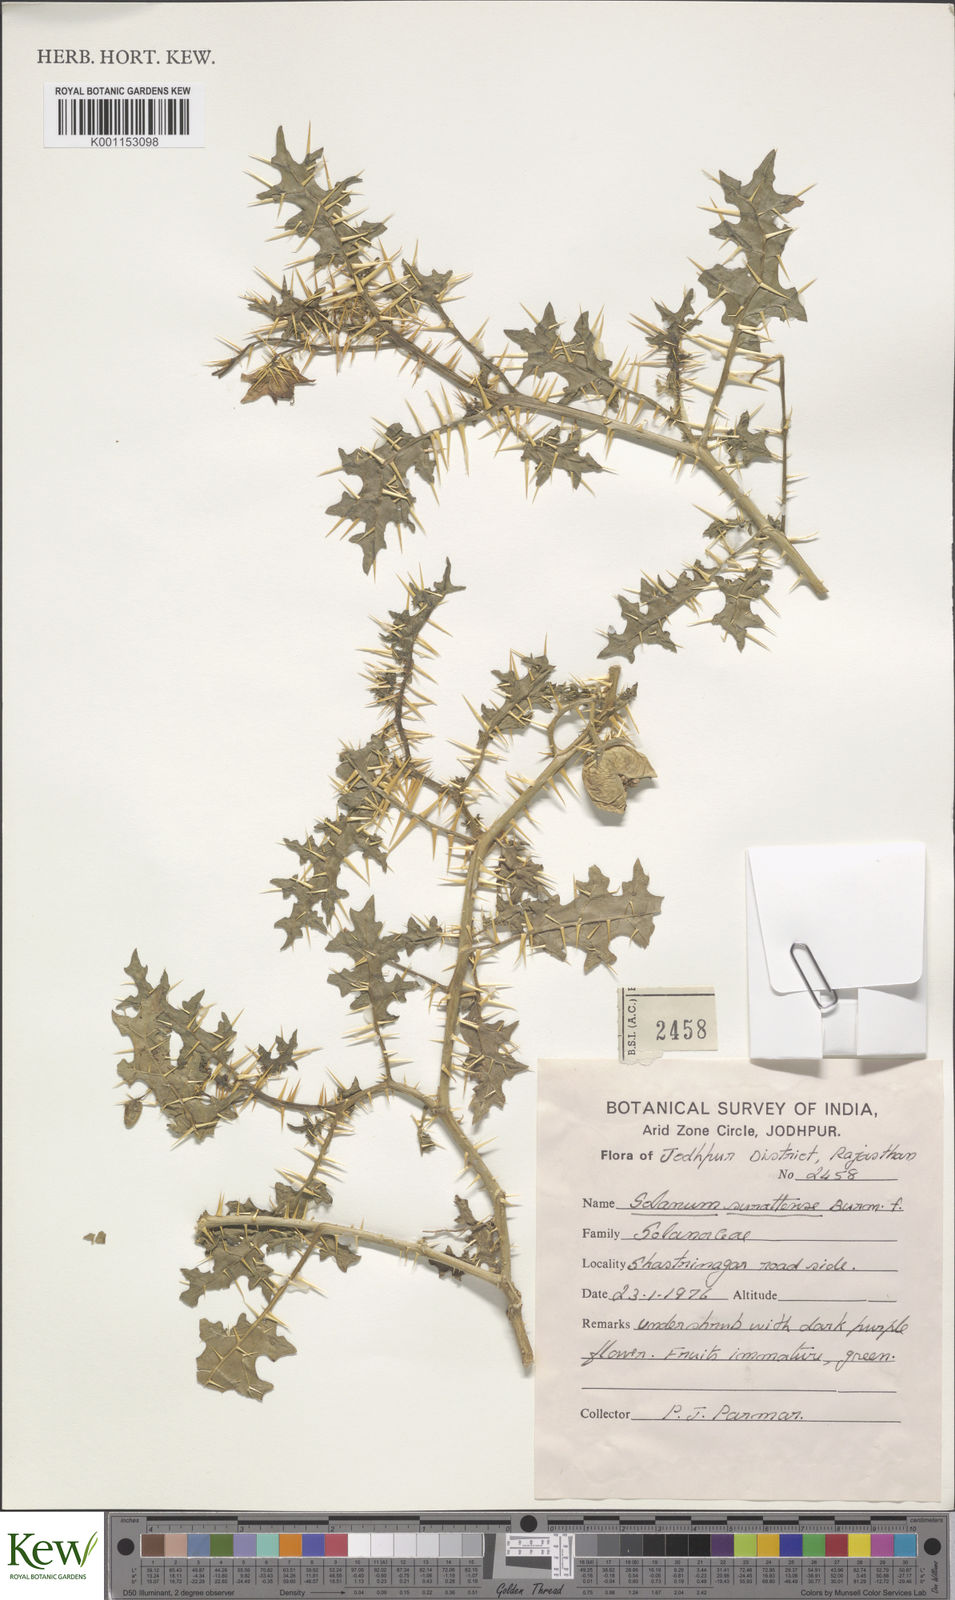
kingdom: Plantae
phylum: Tracheophyta
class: Magnoliopsida
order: Solanales
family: Solanaceae
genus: Solanum
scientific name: Solanum virginianum
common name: Surattense nightshade
